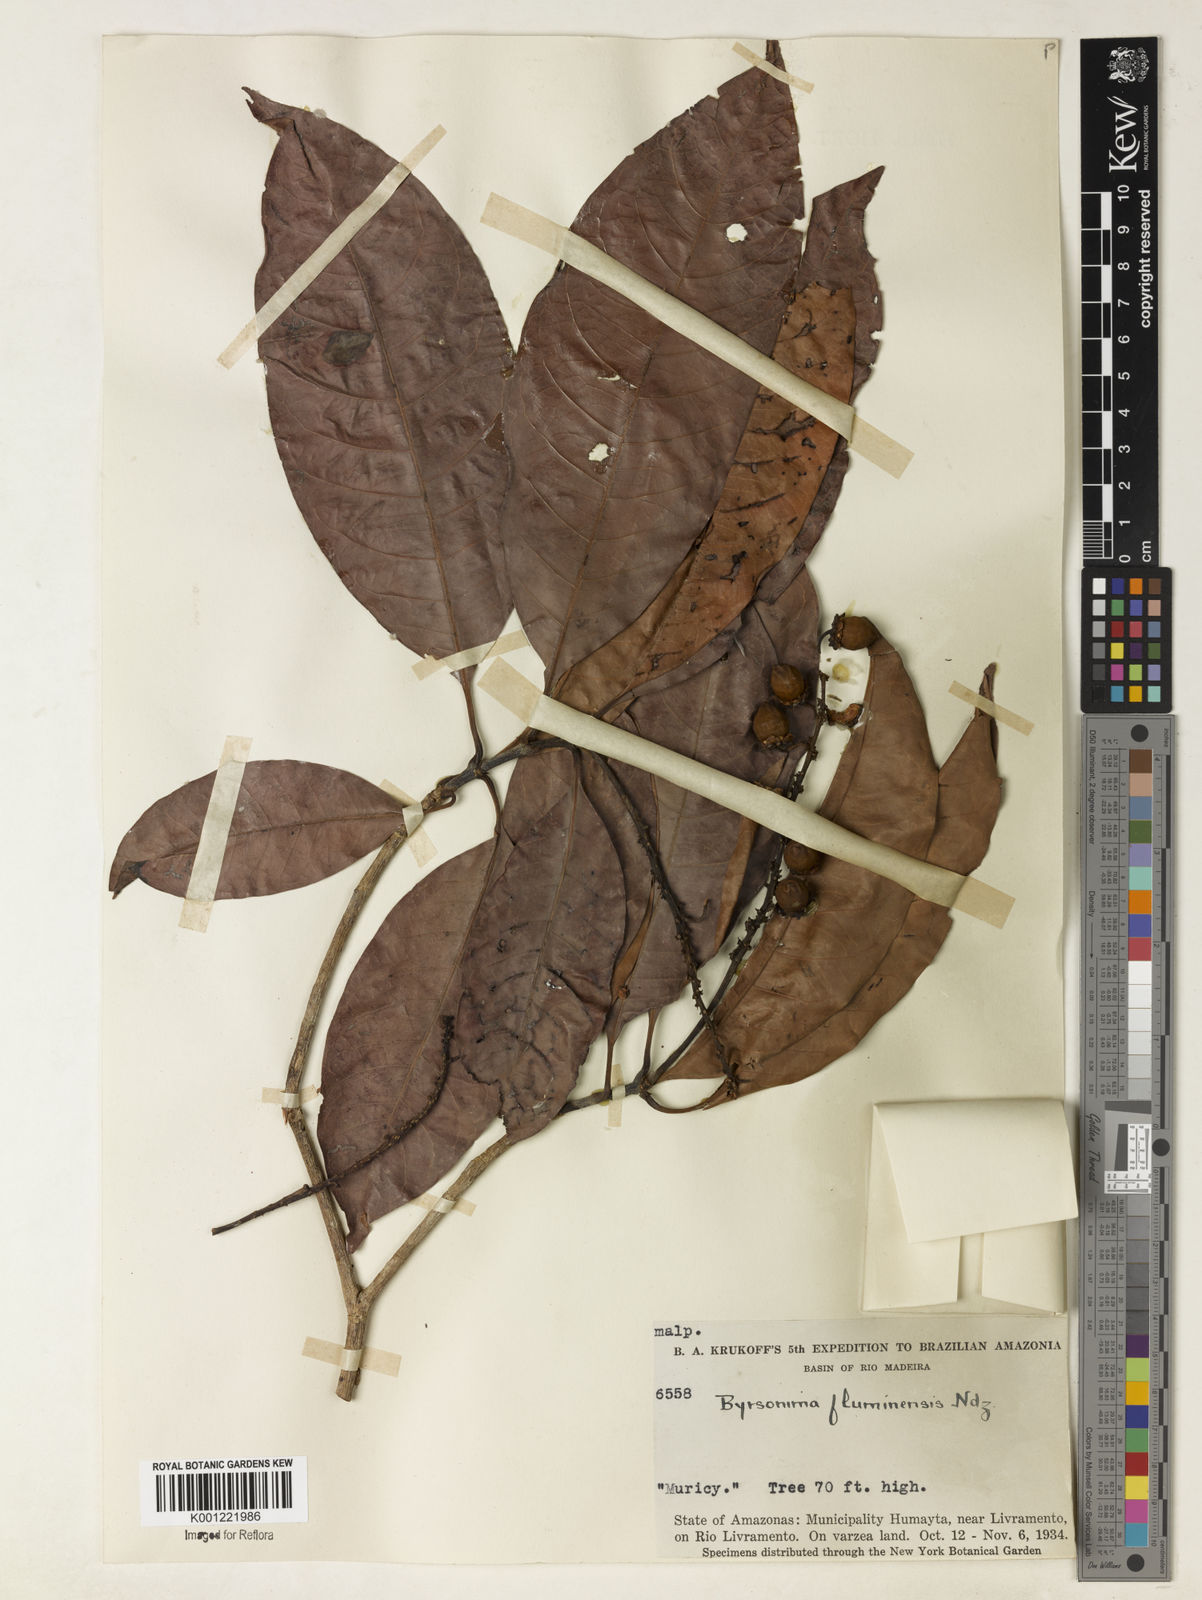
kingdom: Plantae
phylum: Tracheophyta
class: Magnoliopsida
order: Malpighiales
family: Malpighiaceae
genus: Byrsonima
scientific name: Byrsonima japurensis
